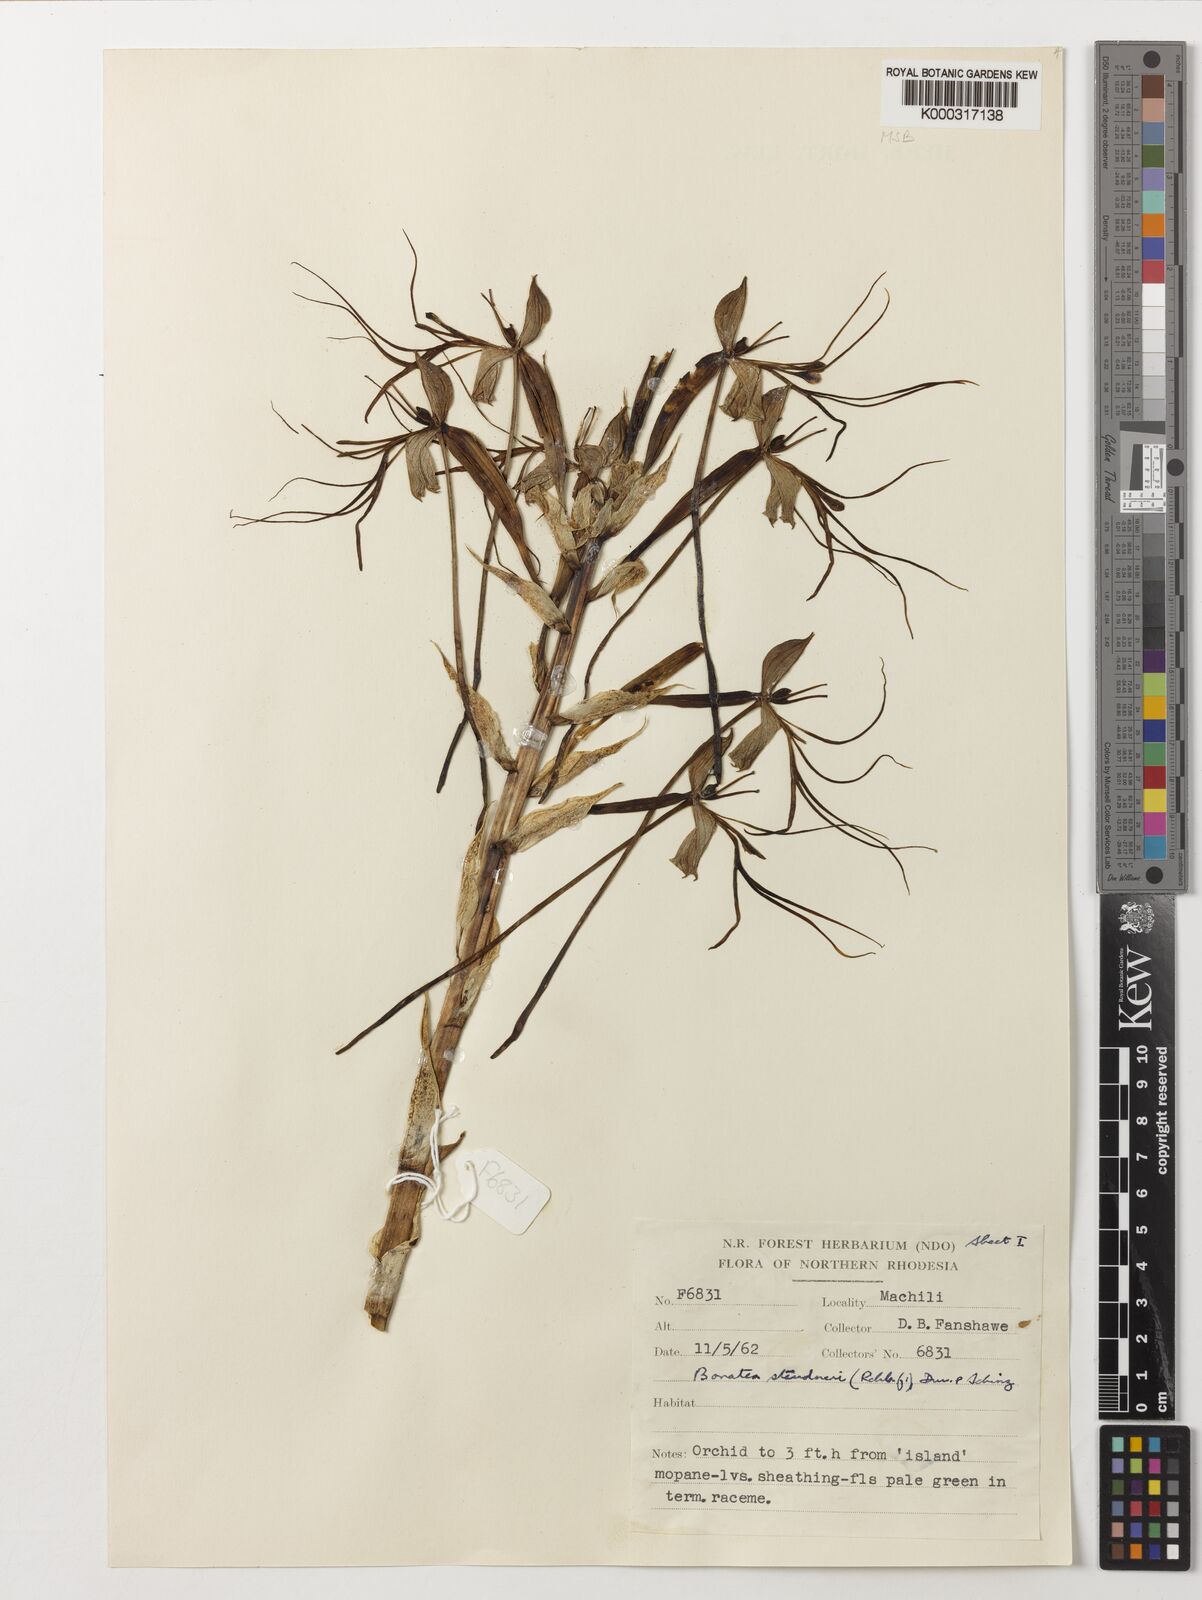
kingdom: Plantae
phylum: Tracheophyta
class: Liliopsida
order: Asparagales
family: Orchidaceae
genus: Bonatea
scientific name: Bonatea steudneri
